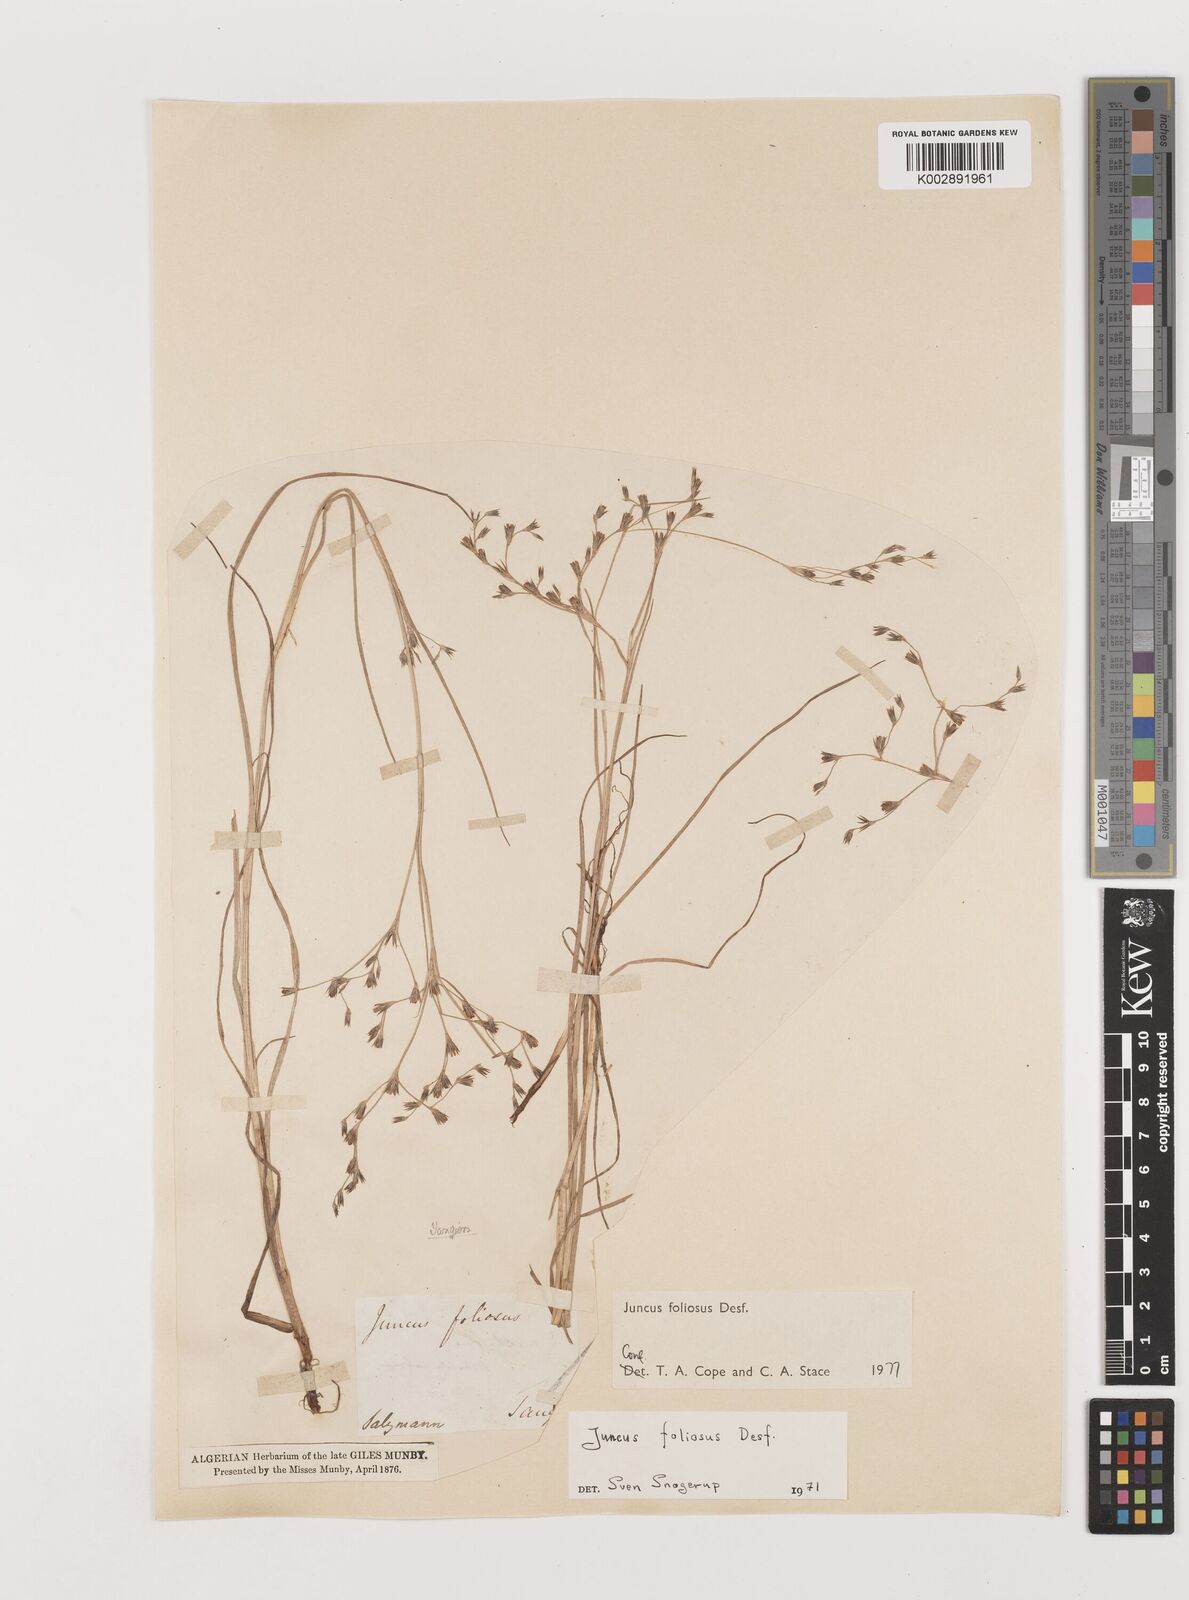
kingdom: Plantae
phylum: Tracheophyta
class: Liliopsida
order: Poales
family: Juncaceae
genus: Juncus
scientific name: Juncus acutiflorus
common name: Sharp-flowered rush
